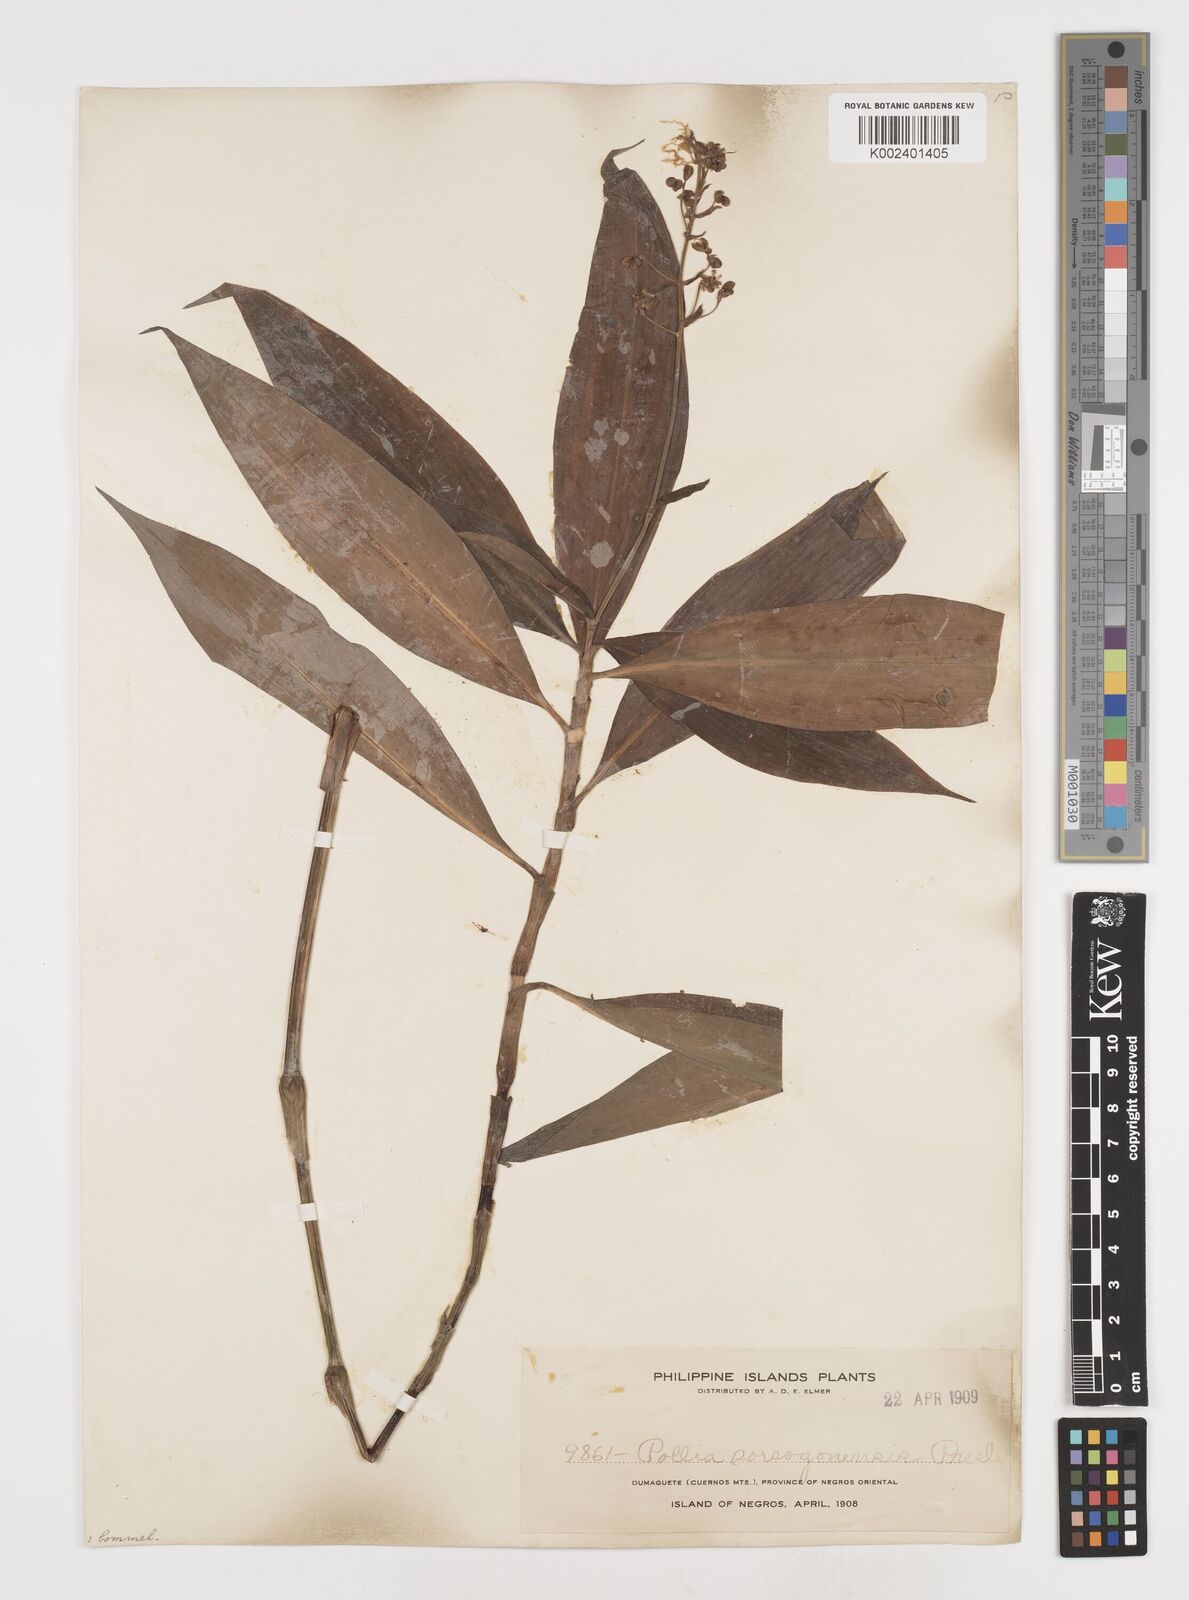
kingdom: Plantae
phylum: Tracheophyta
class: Liliopsida
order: Commelinales
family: Commelinaceae
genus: Pollia
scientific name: Pollia secundiflora
